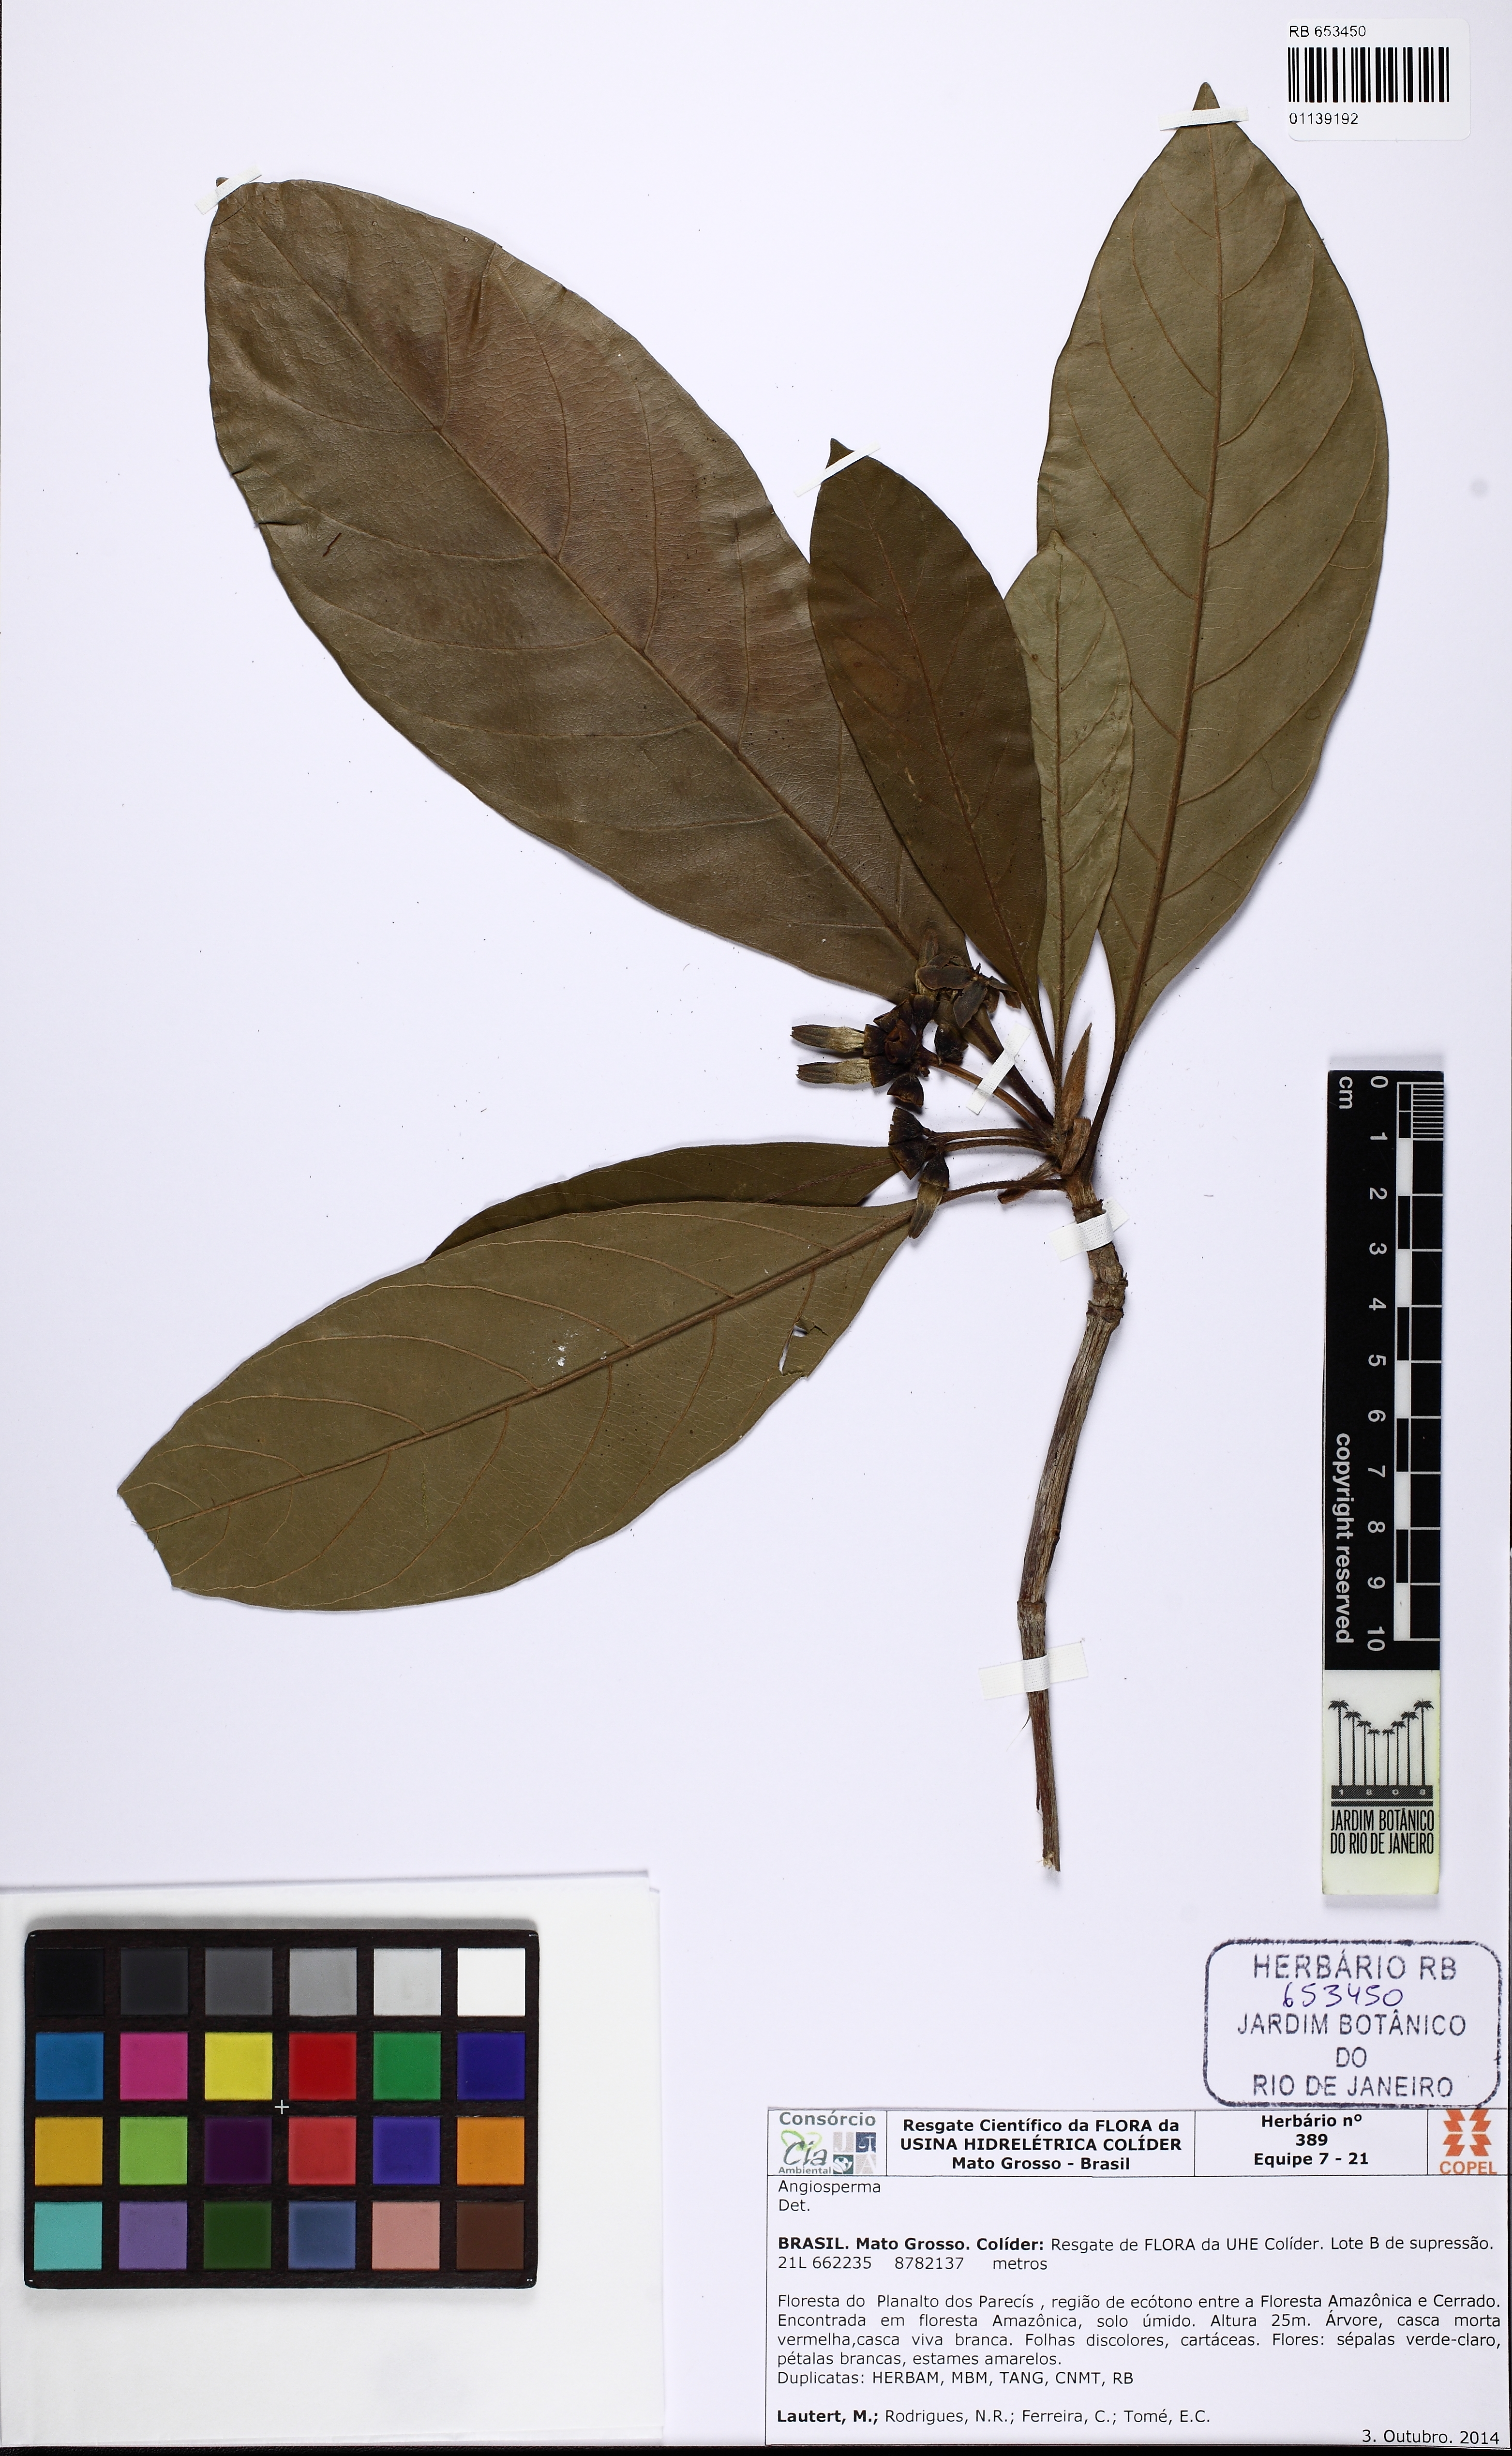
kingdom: Plantae
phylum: Tracheophyta
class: Magnoliopsida
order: Gentianales
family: Rubiaceae
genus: Duroia
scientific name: Duroia
